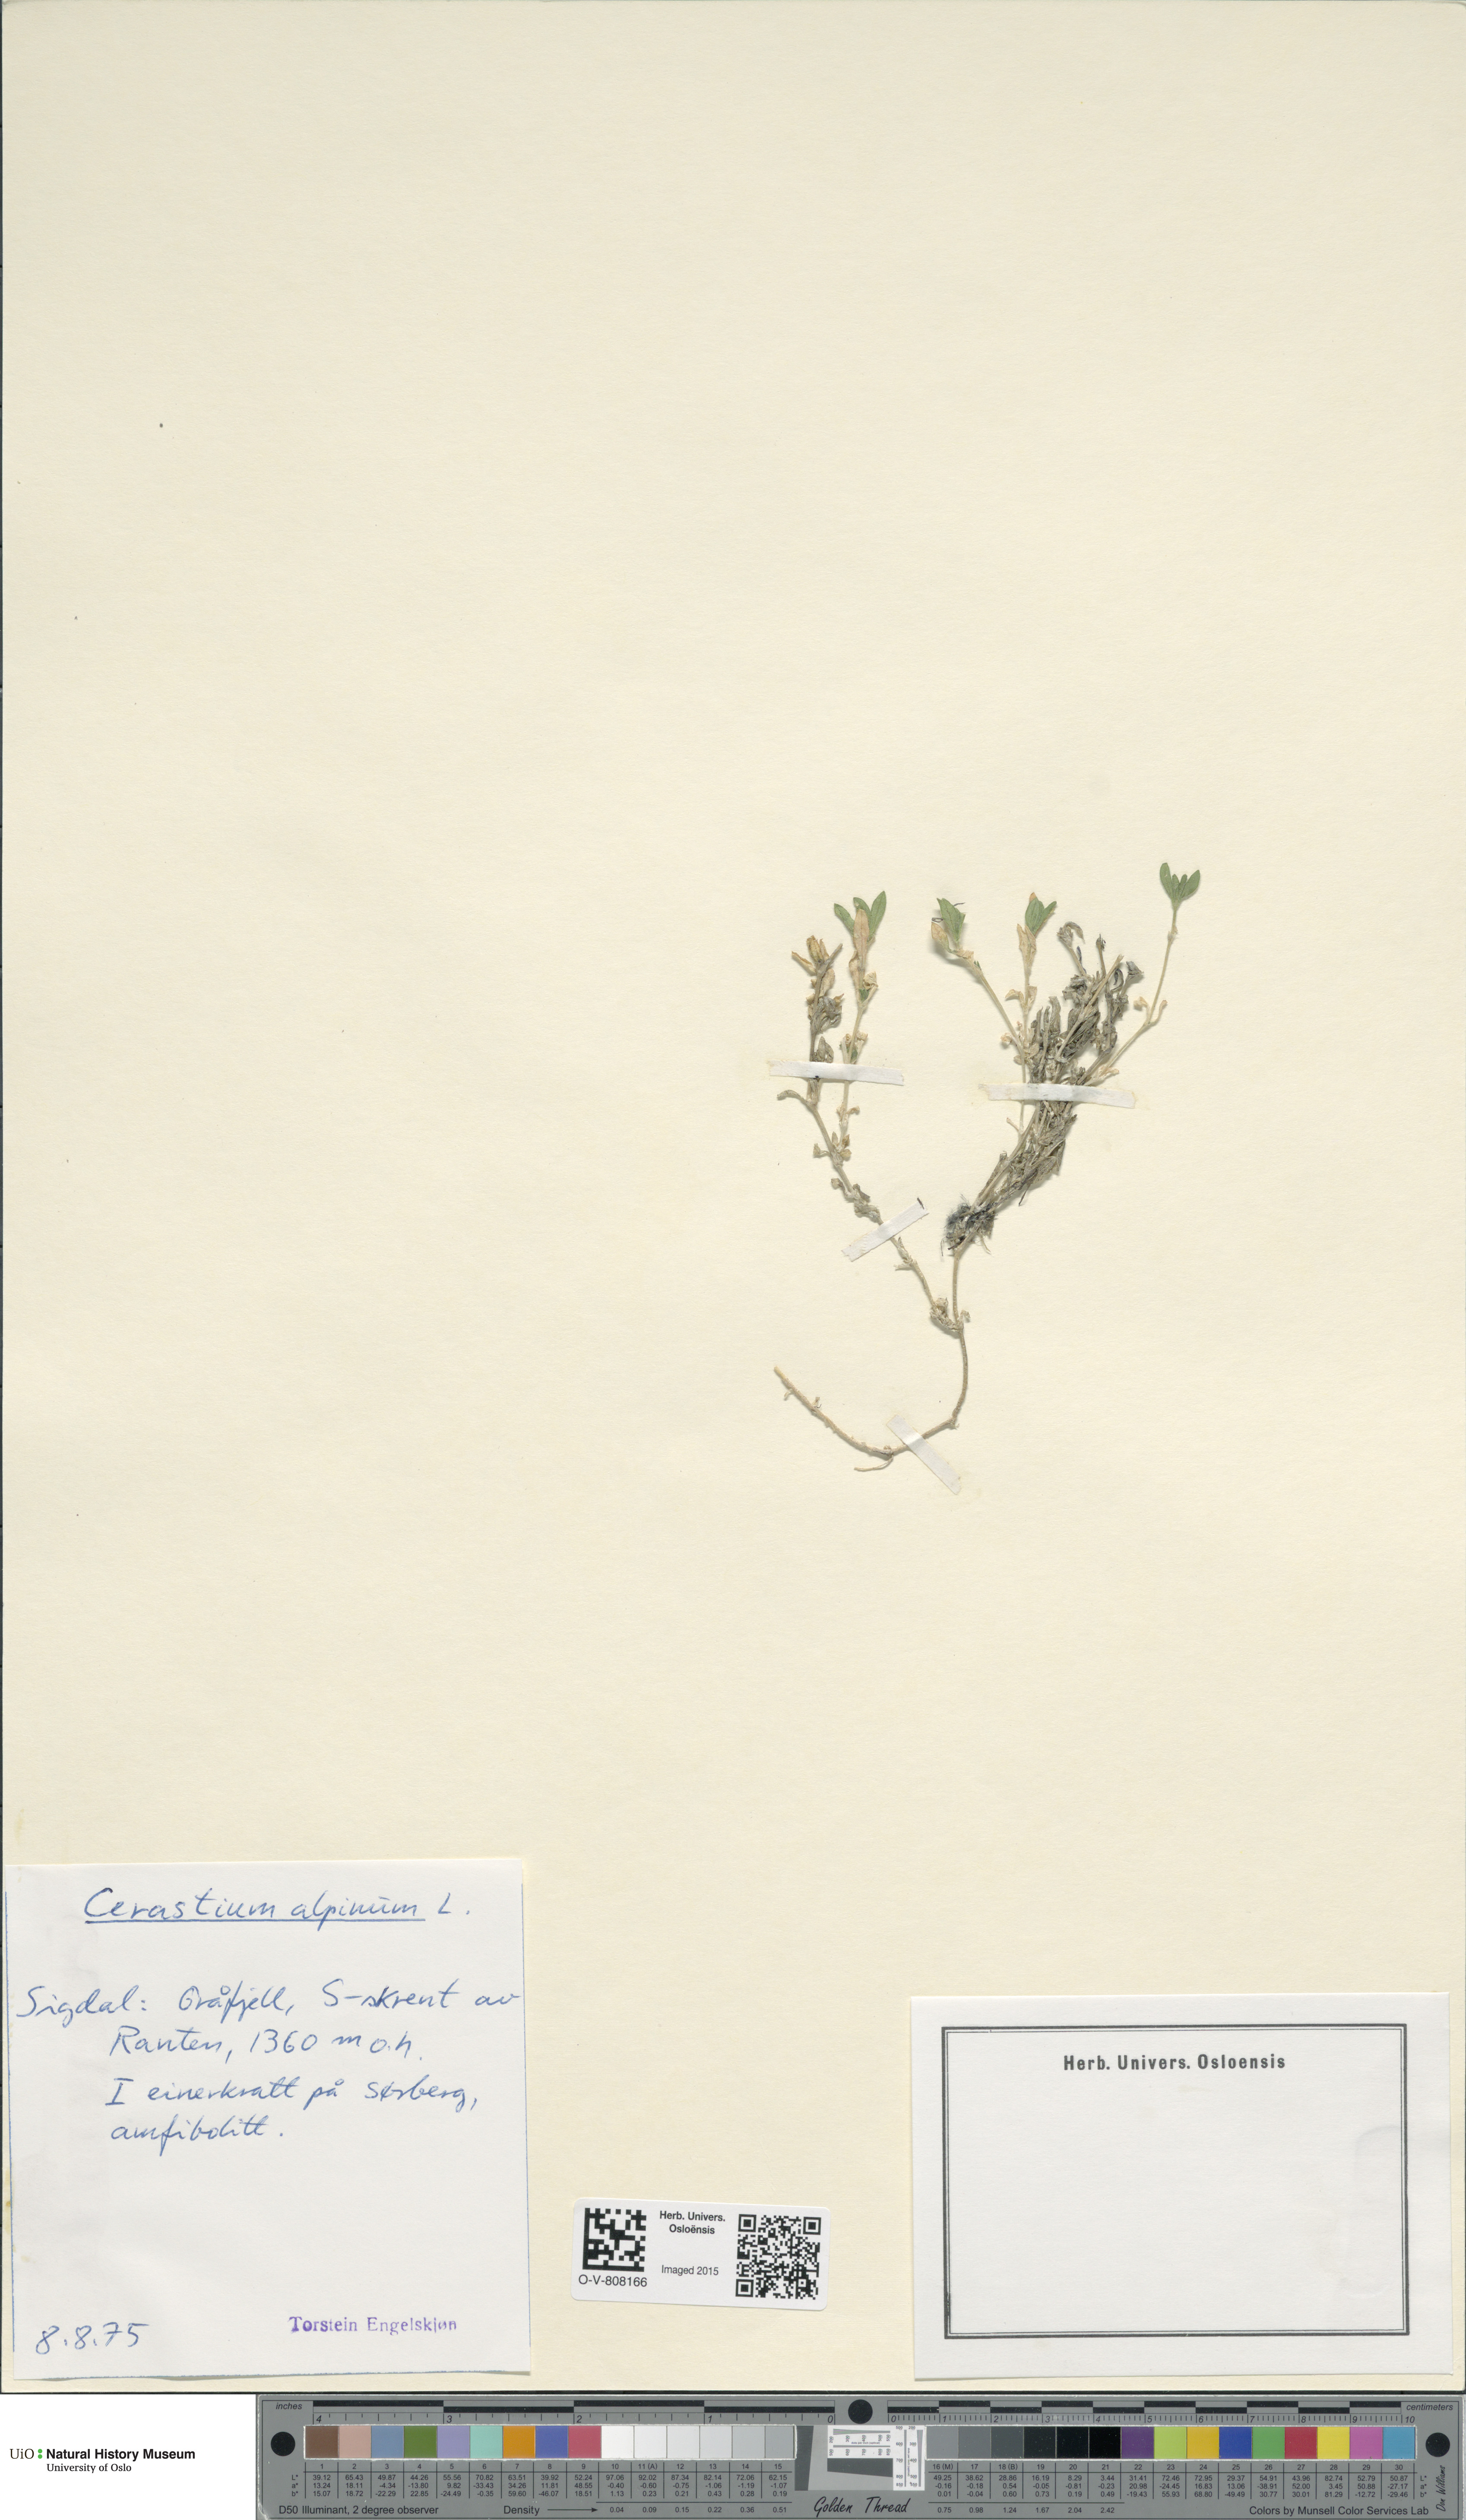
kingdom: Plantae
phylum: Tracheophyta
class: Magnoliopsida
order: Caryophyllales
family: Caryophyllaceae
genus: Cerastium
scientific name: Cerastium alpinum
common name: Alpine mouse-ear
